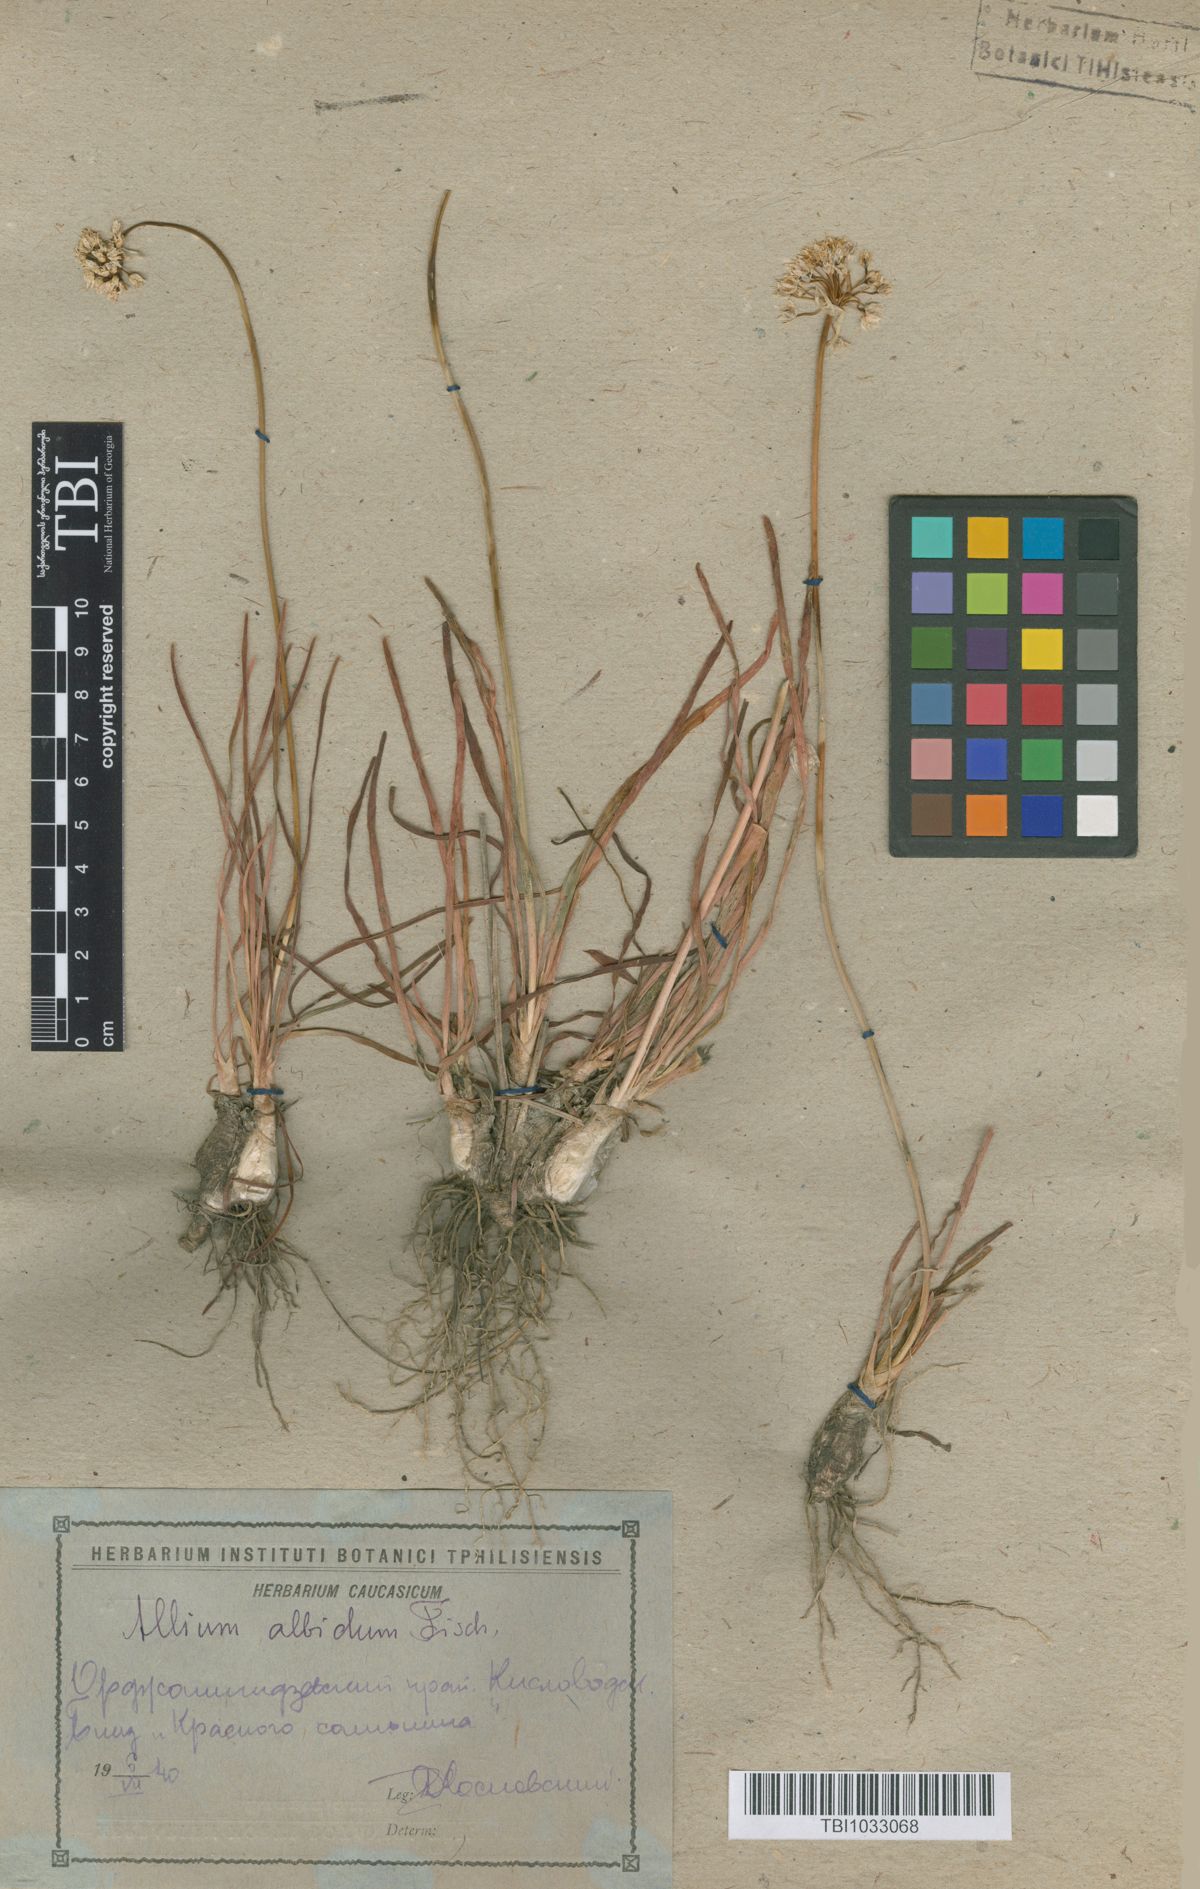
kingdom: Plantae
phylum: Tracheophyta
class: Liliopsida
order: Asparagales
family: Amaryllidaceae
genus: Allium
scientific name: Allium denudatum
